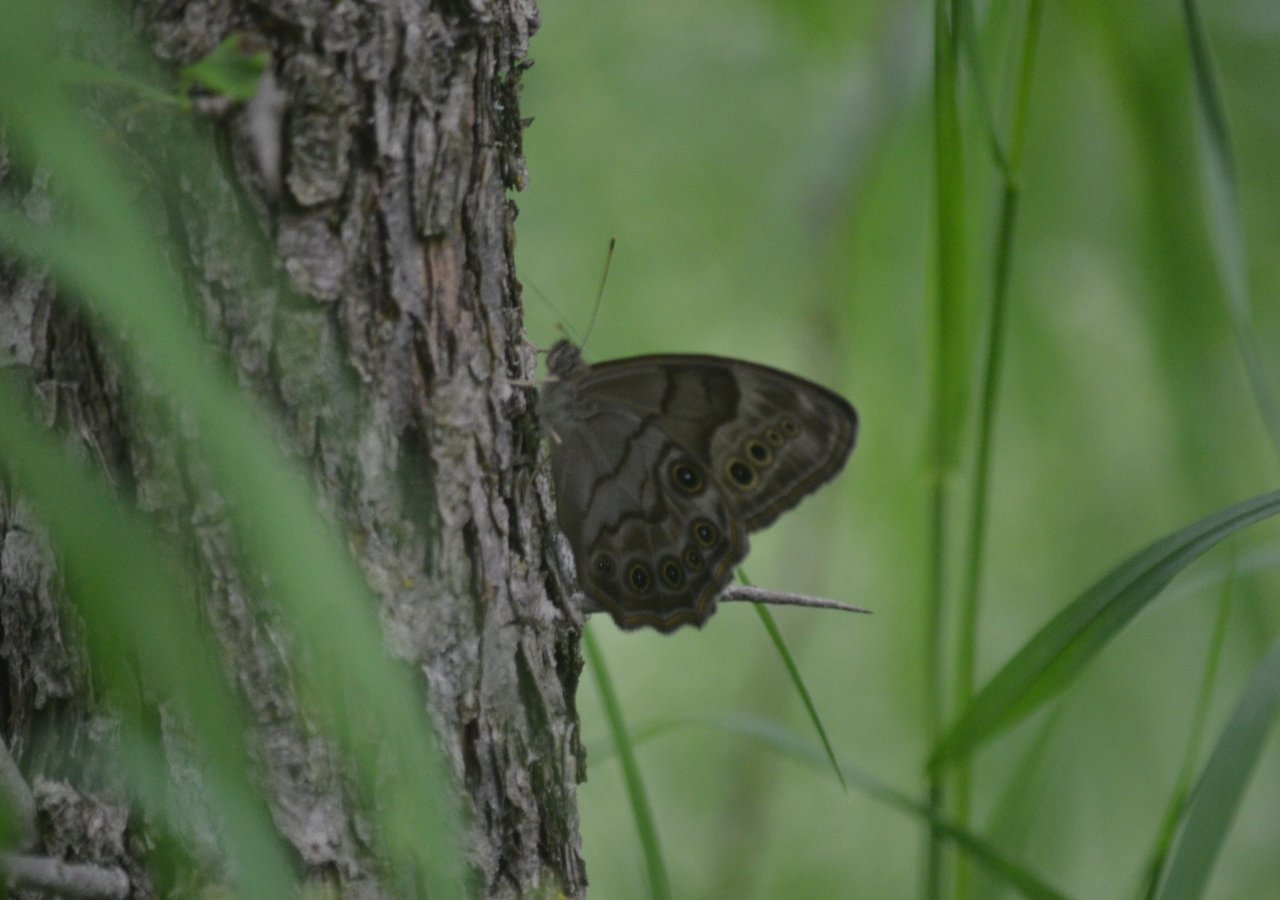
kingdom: Animalia
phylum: Arthropoda
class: Insecta
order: Lepidoptera
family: Nymphalidae
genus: Lethe
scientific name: Lethe anthedon
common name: Northern Pearly-Eye
